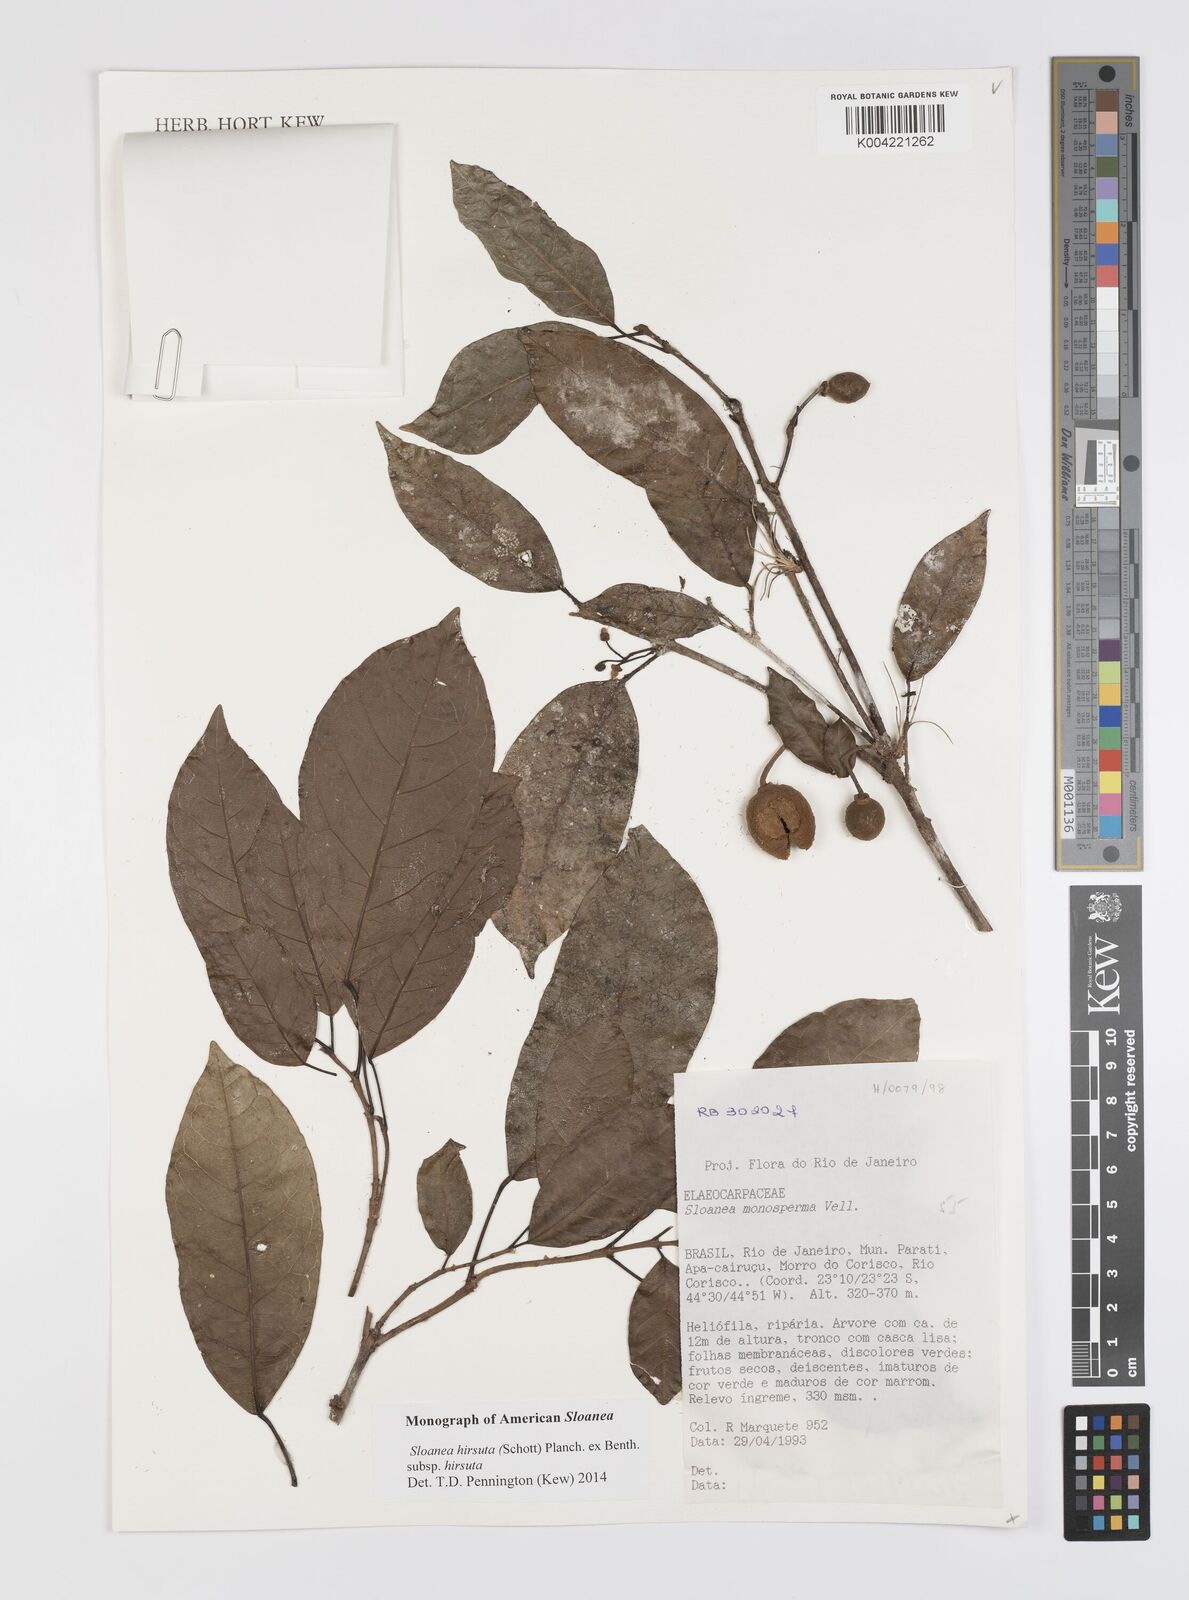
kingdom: Plantae
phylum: Tracheophyta
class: Magnoliopsida
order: Oxalidales
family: Elaeocarpaceae
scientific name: Elaeocarpaceae
